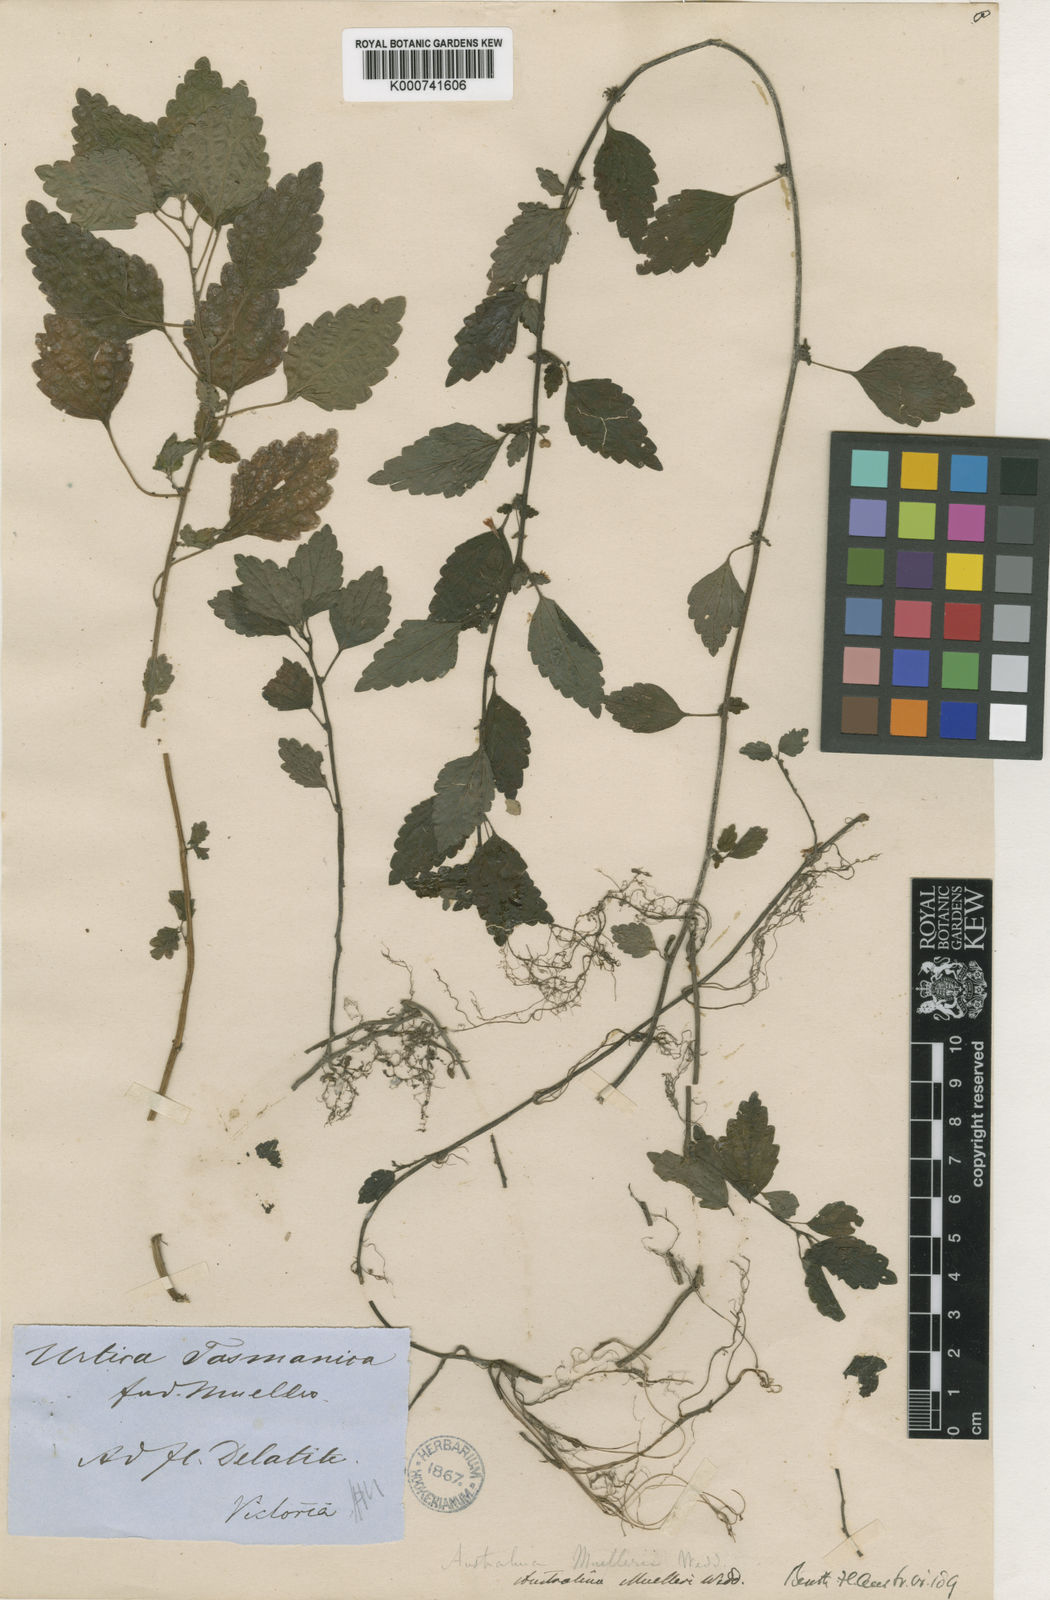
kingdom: Plantae
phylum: Tracheophyta
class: Magnoliopsida
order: Rosales
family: Urticaceae
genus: Australina
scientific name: Australina pusilla
